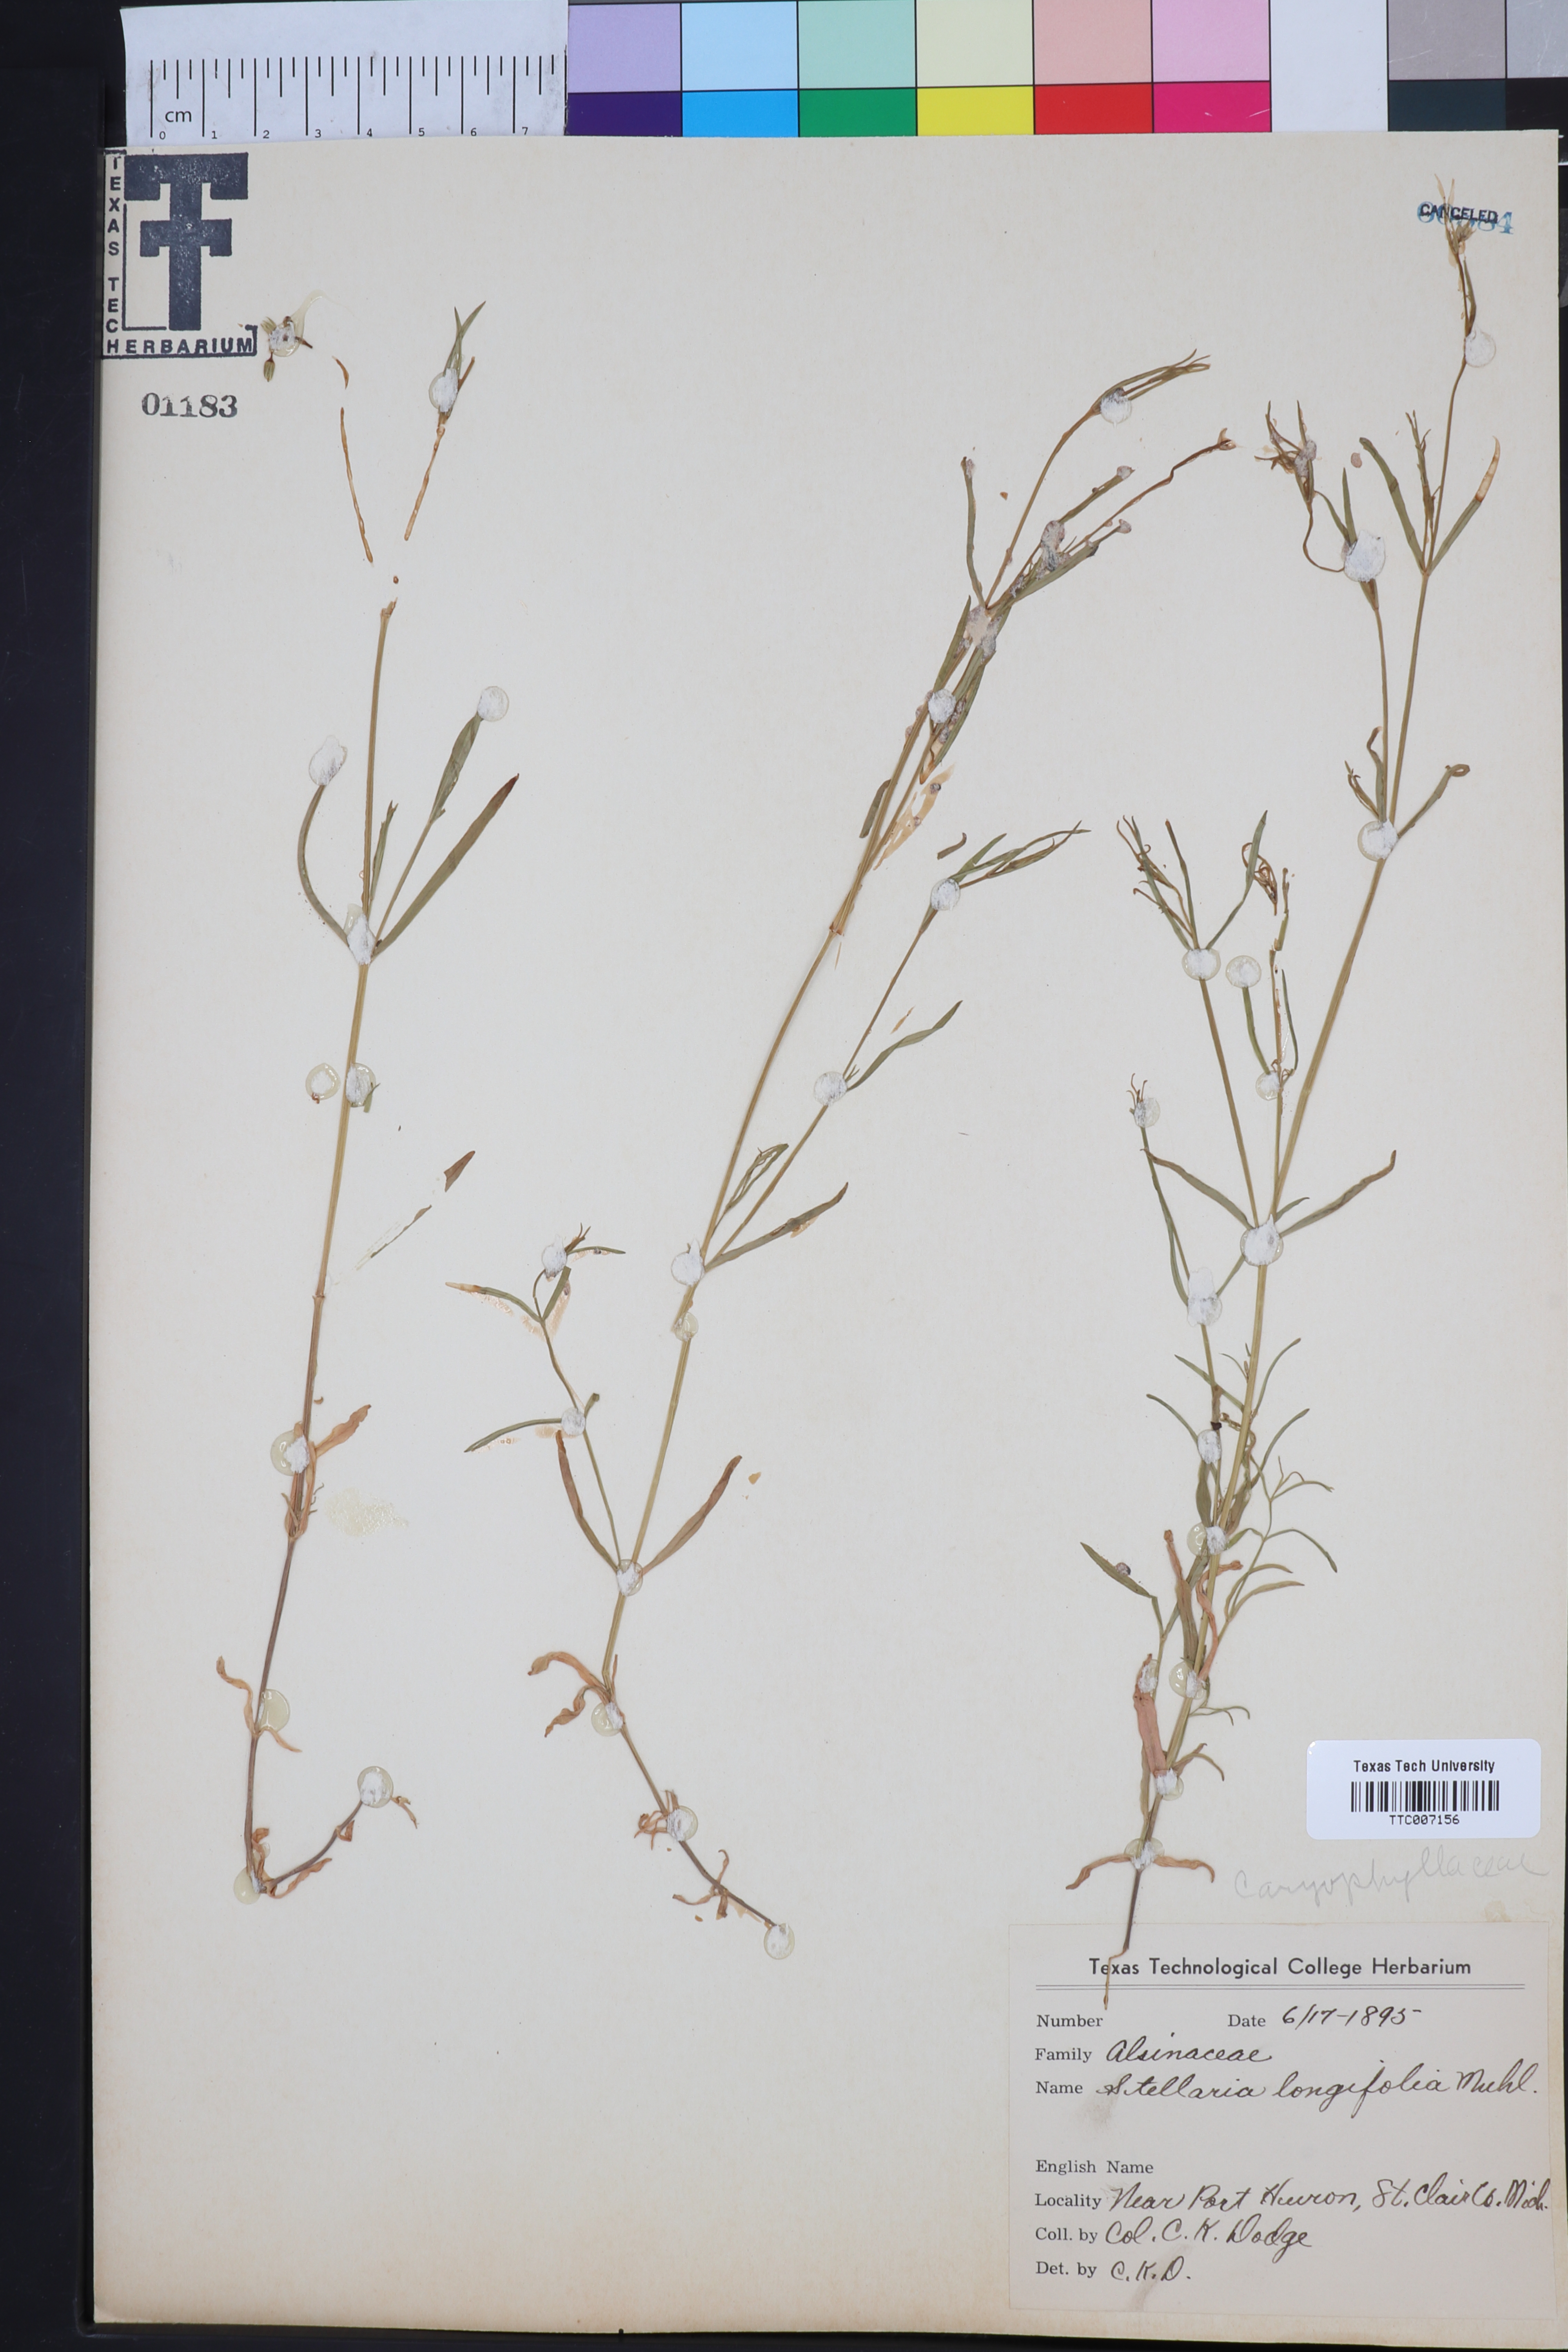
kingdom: Plantae
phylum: Tracheophyta
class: Magnoliopsida
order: Caryophyllales
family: Caryophyllaceae
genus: Stellaria
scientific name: Stellaria longifolia
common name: Long-leaved chickweed
